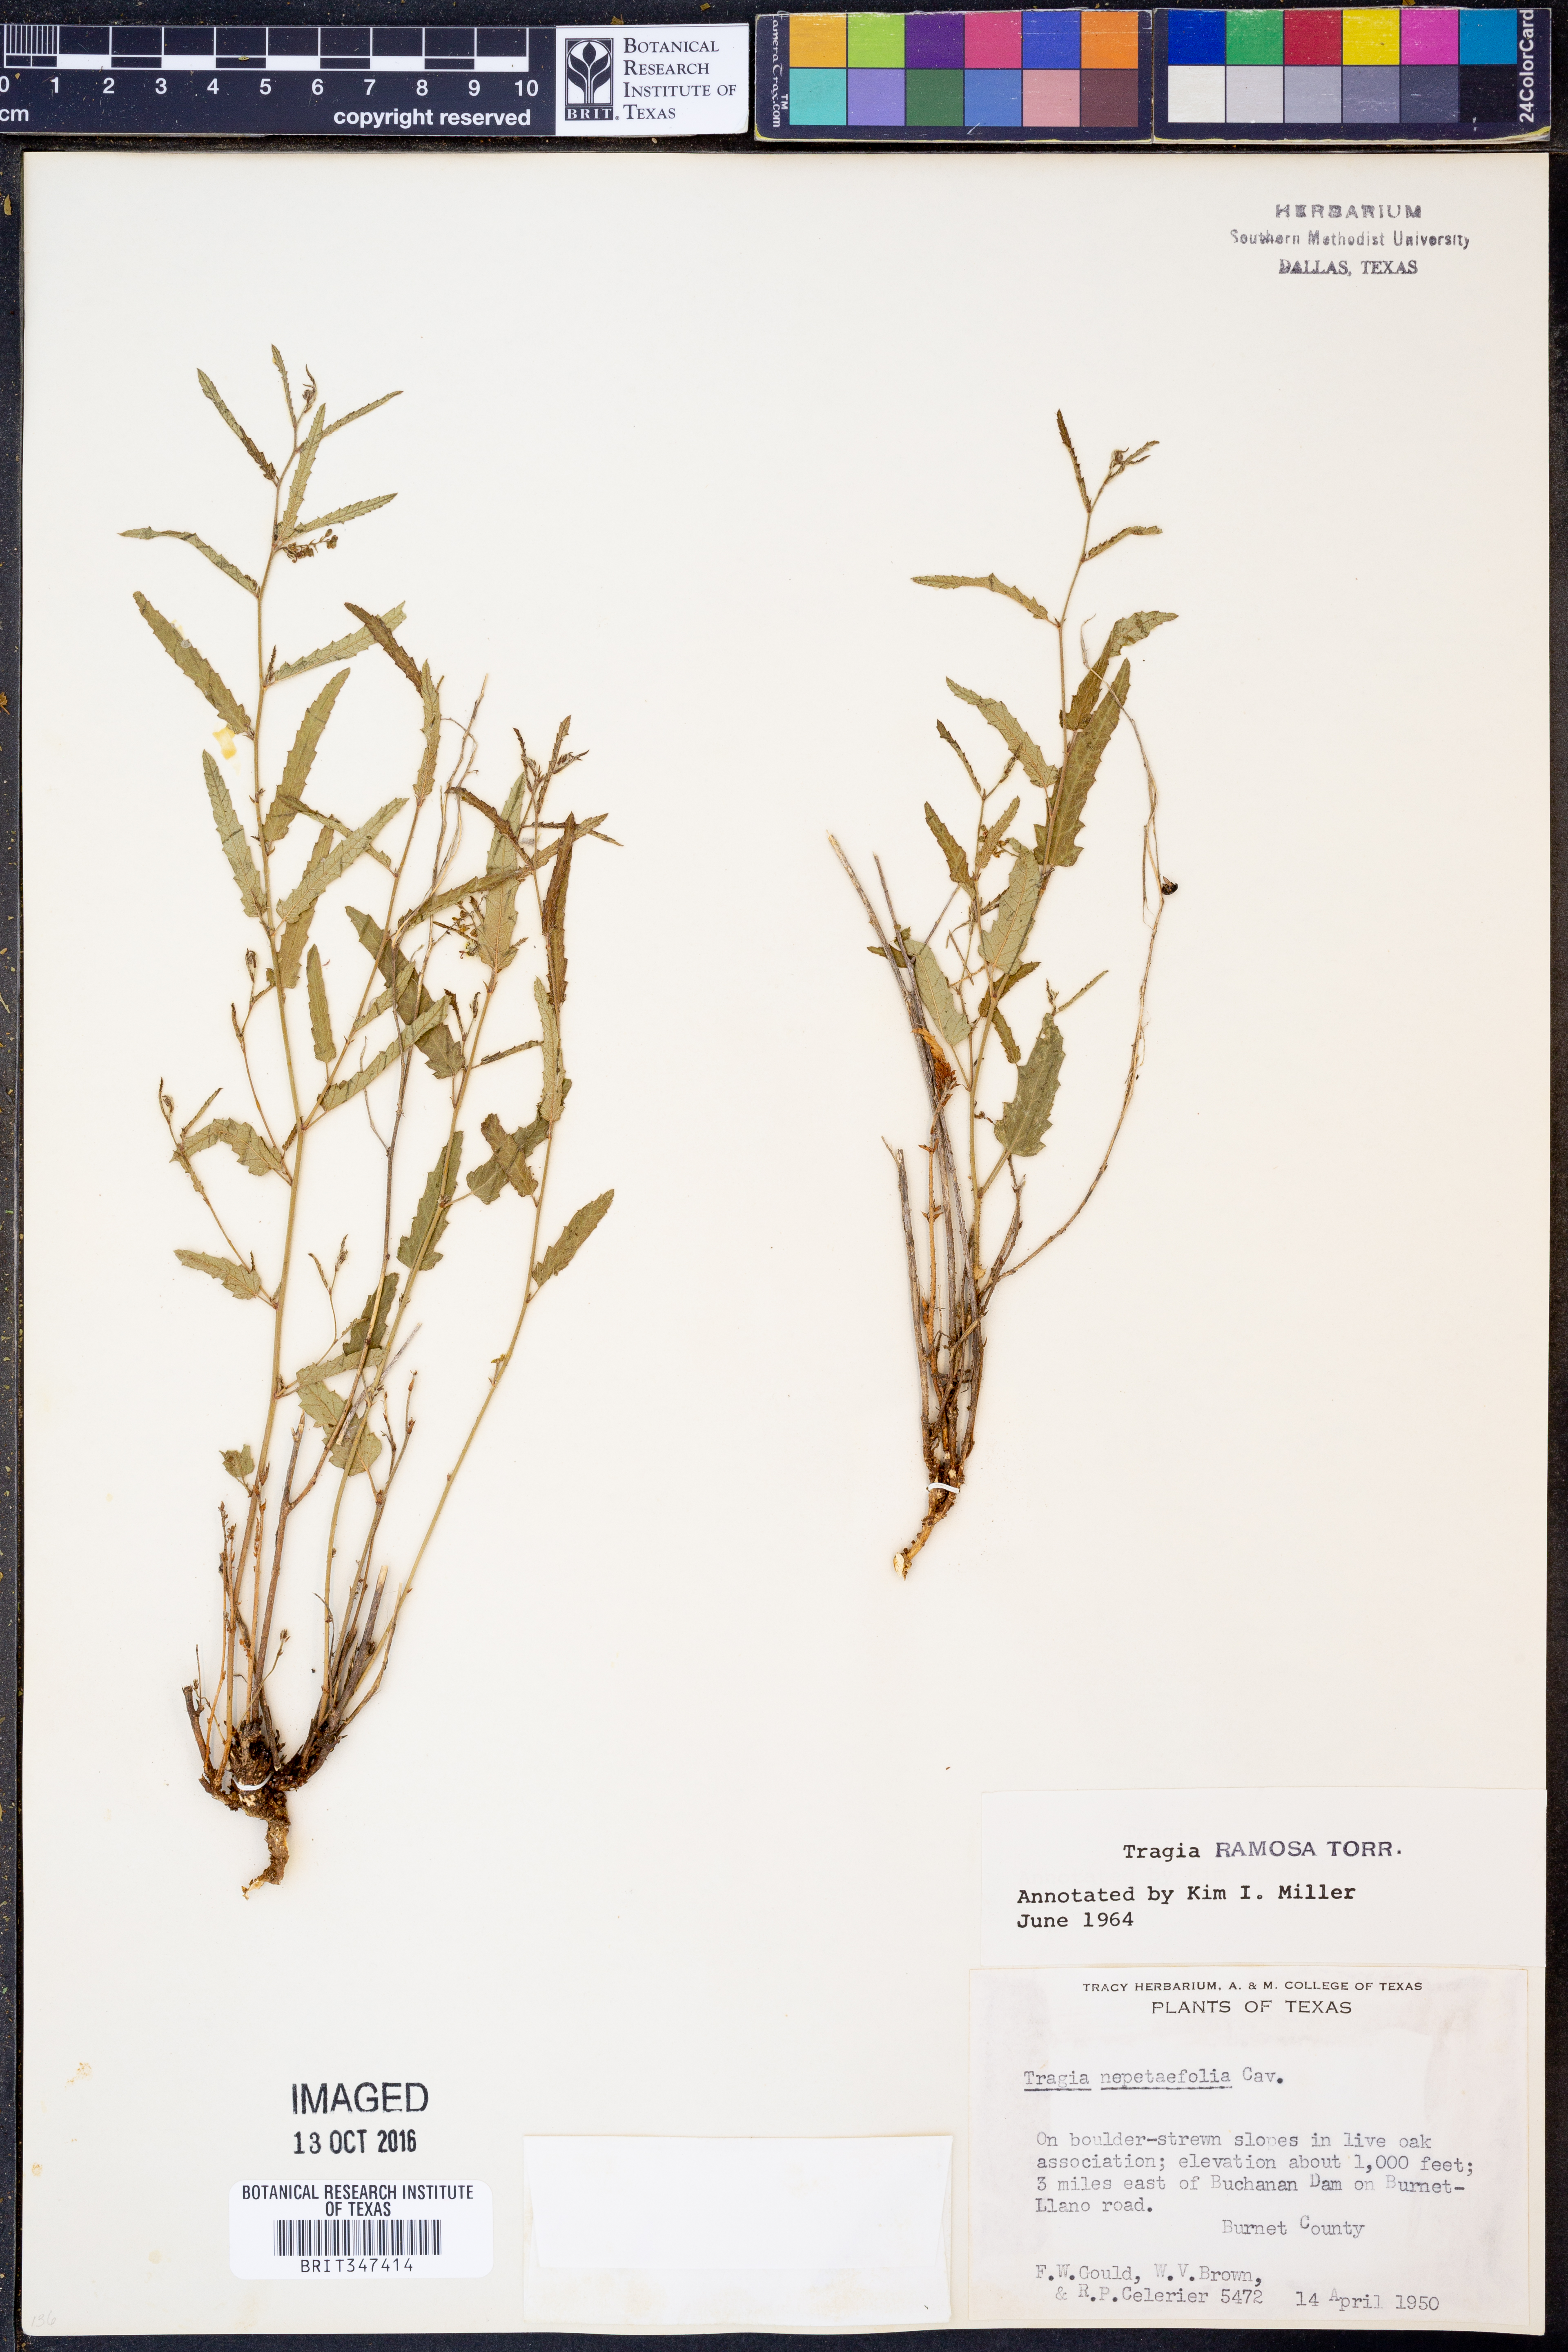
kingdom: Plantae
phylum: Tracheophyta
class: Magnoliopsida
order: Malpighiales
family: Euphorbiaceae
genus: Tragia
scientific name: Tragia ramosa
